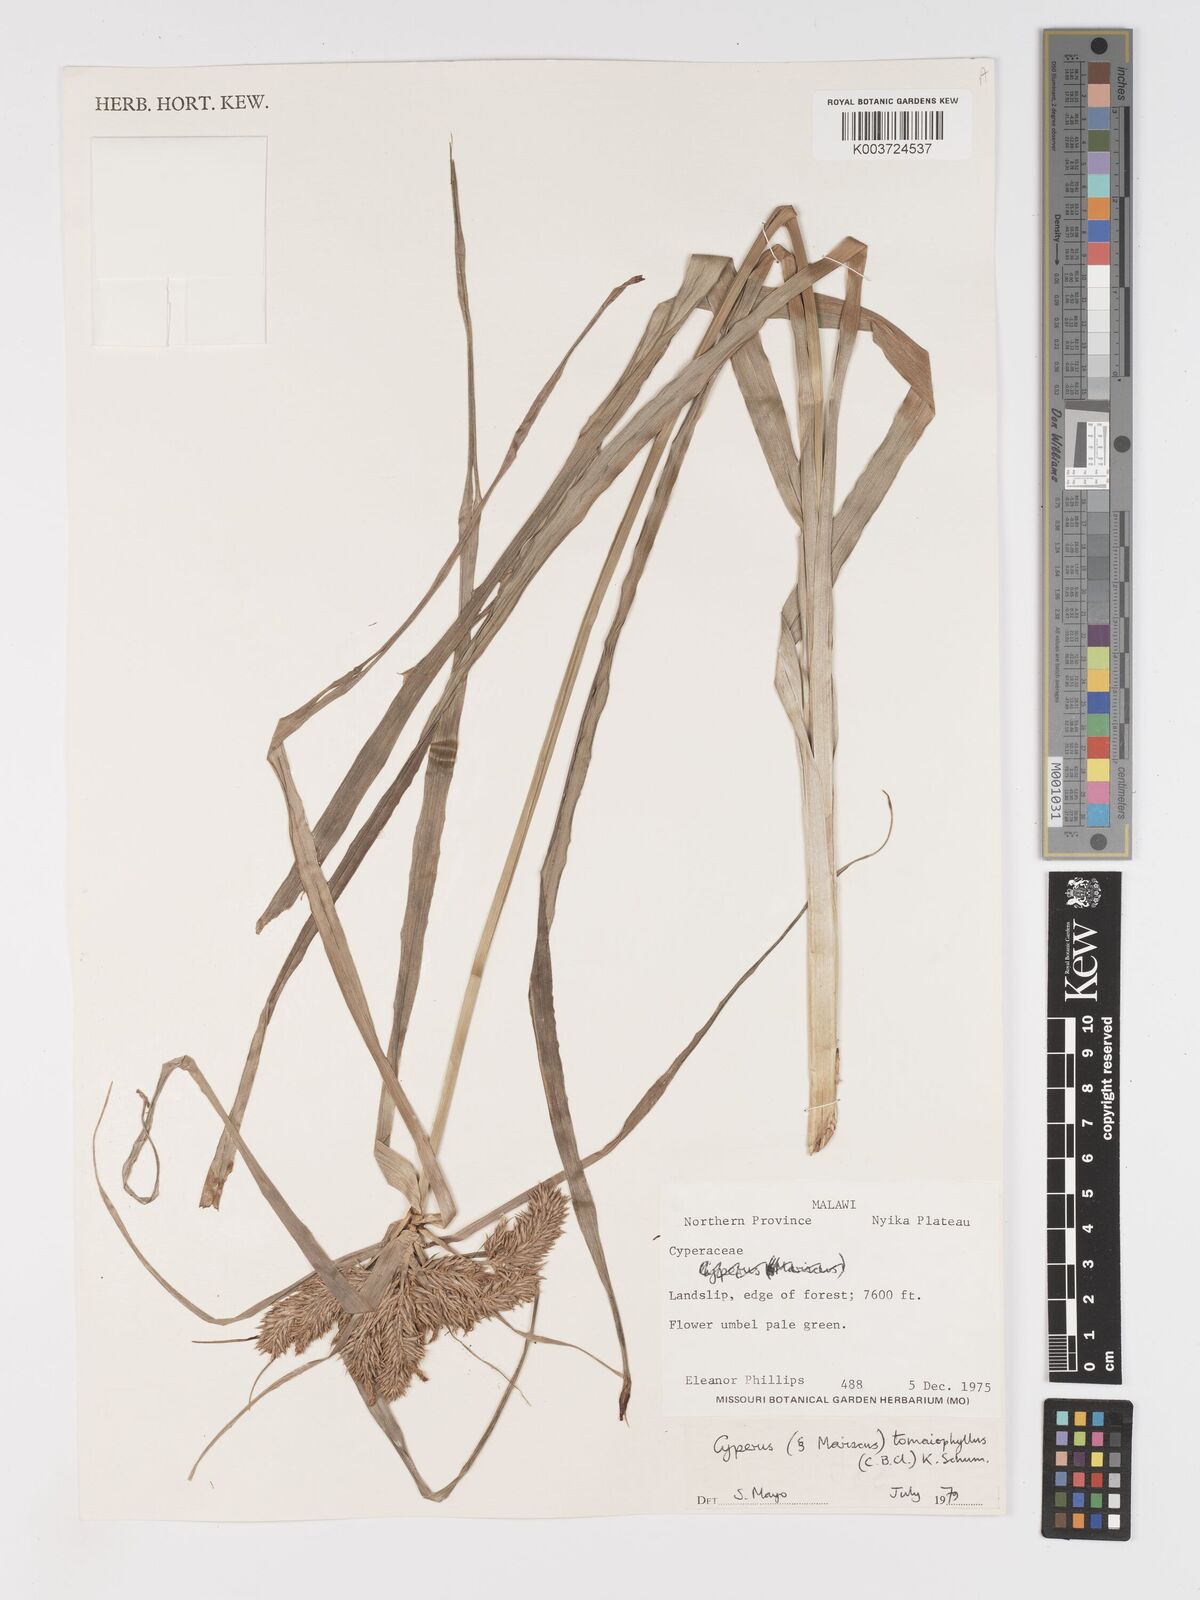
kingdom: Plantae
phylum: Tracheophyta
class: Liliopsida
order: Poales
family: Cyperaceae
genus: Cyperus
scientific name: Cyperus tomaiophyllus
